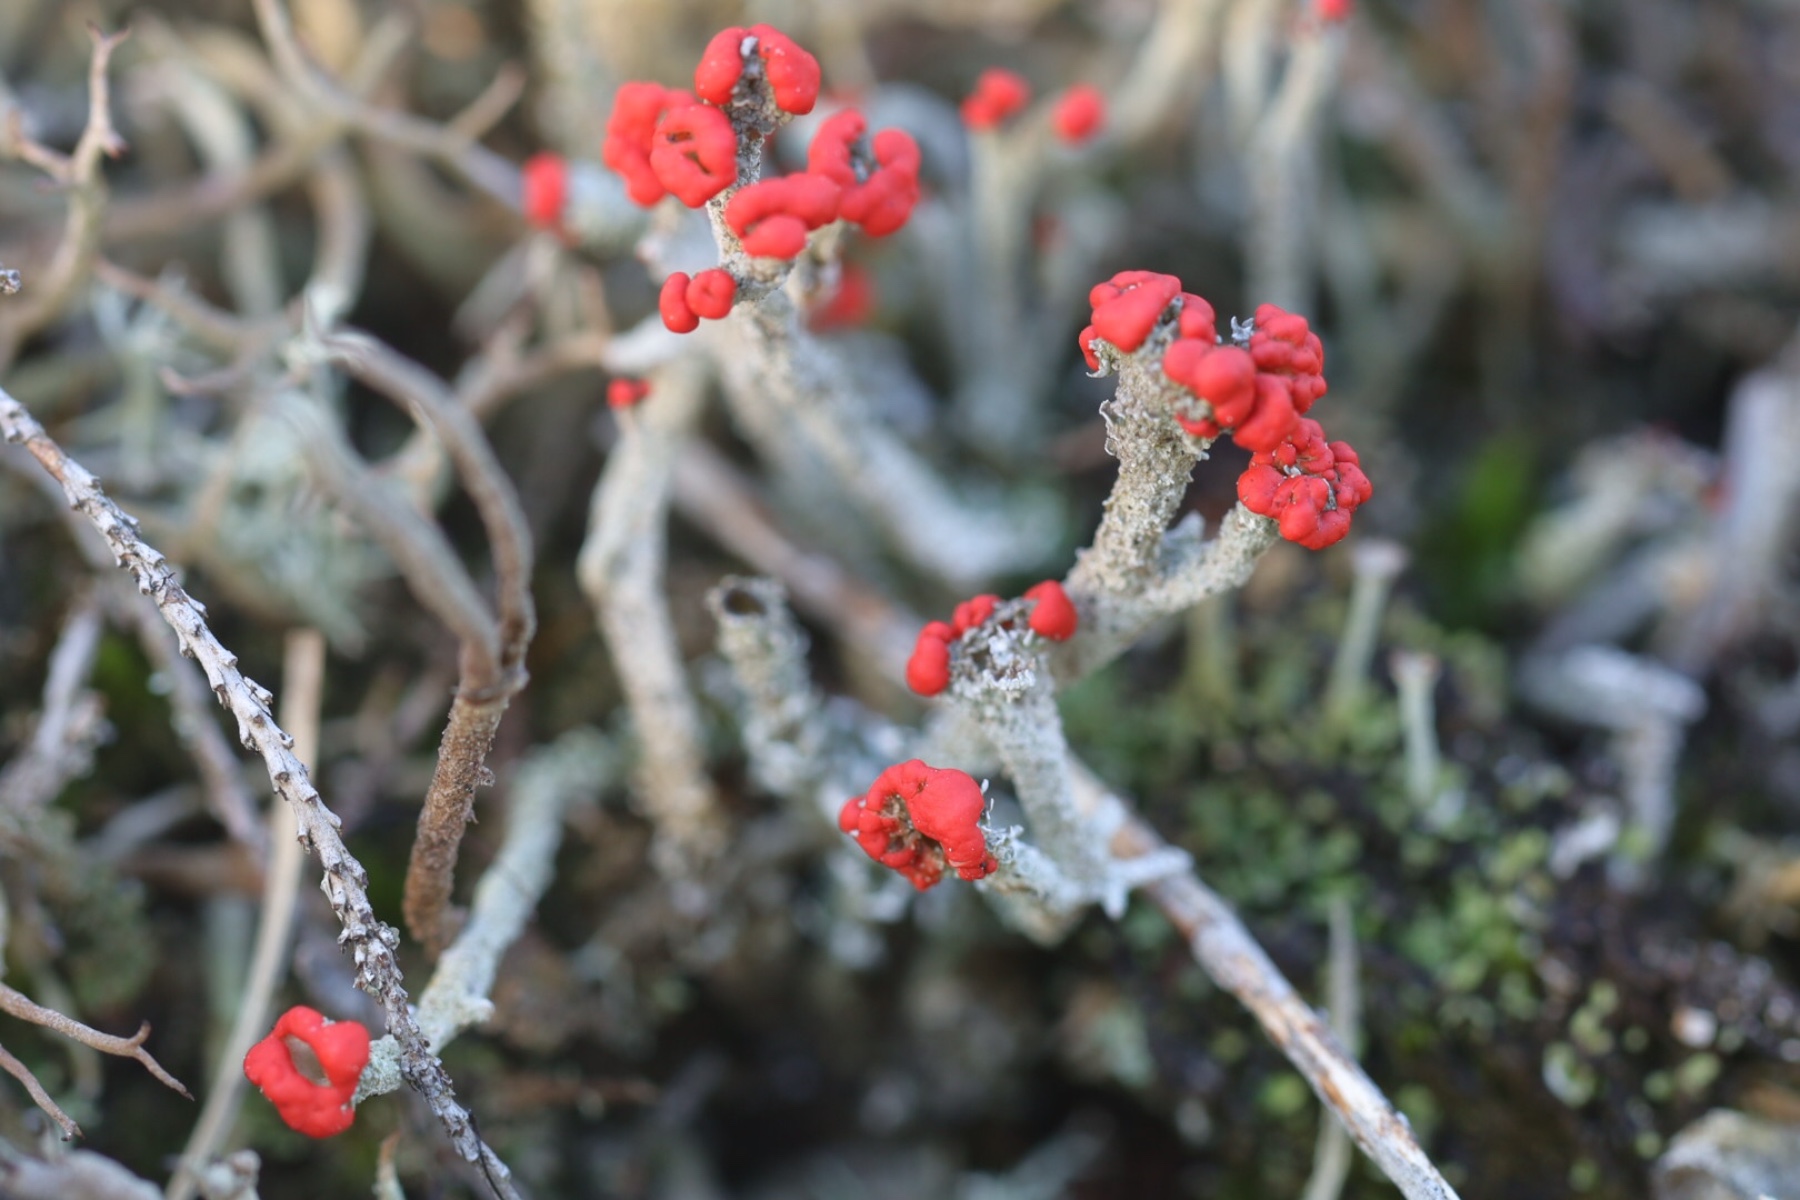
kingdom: Fungi
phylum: Ascomycota
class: Lecanoromycetes
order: Lecanorales
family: Cladoniaceae
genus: Cladonia
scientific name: Cladonia floerkeana
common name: lakrød bægerlav
